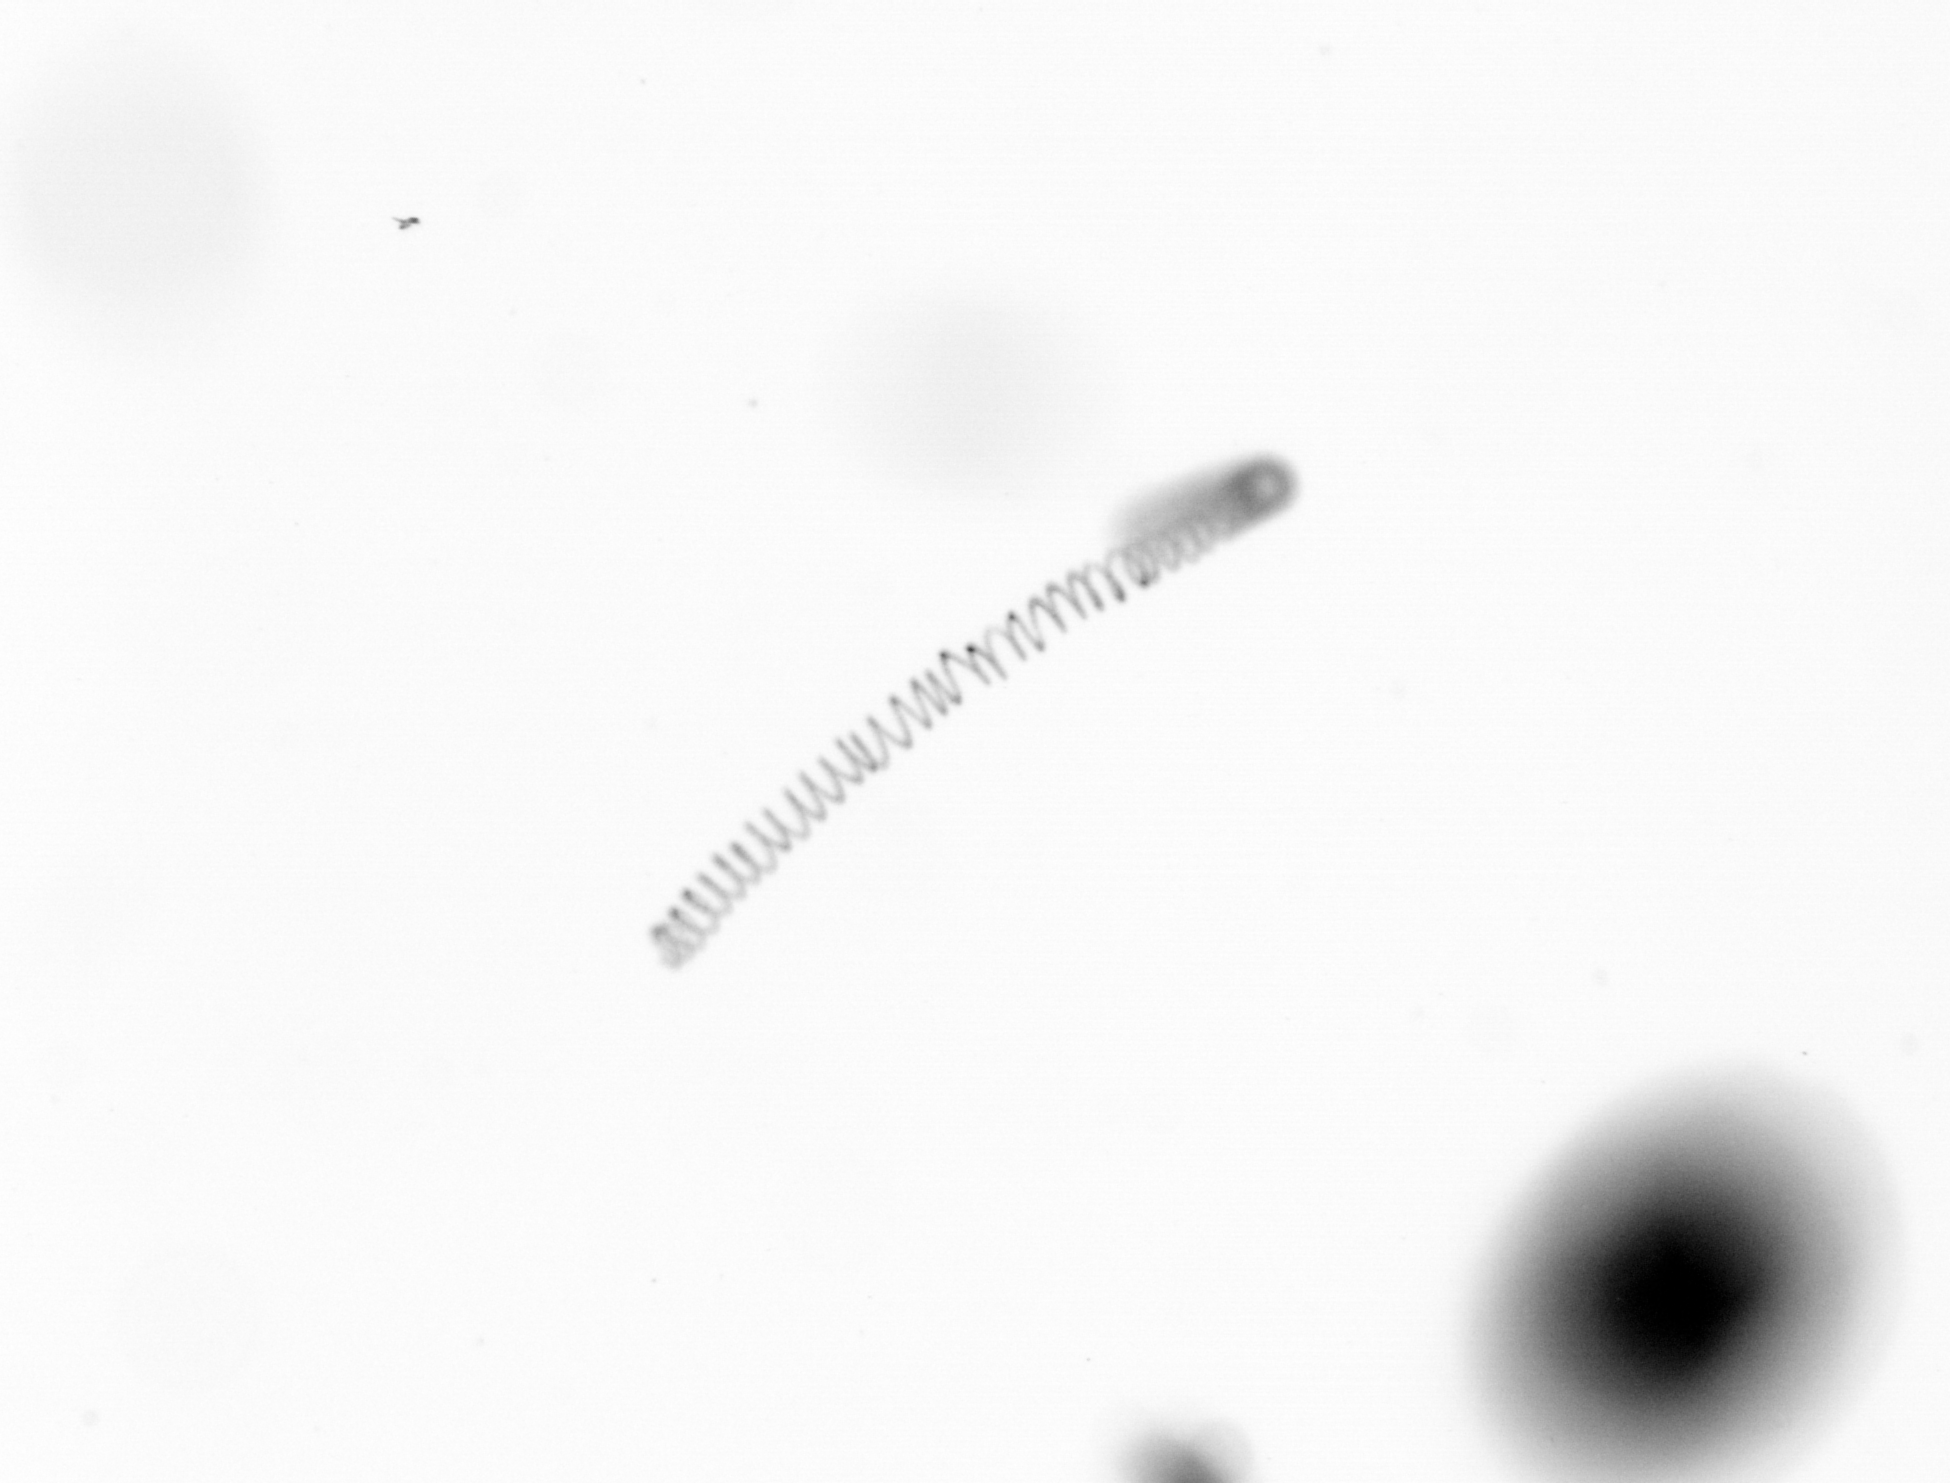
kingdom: Chromista
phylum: Ochrophyta
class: Bacillariophyceae
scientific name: Bacillariophyceae
